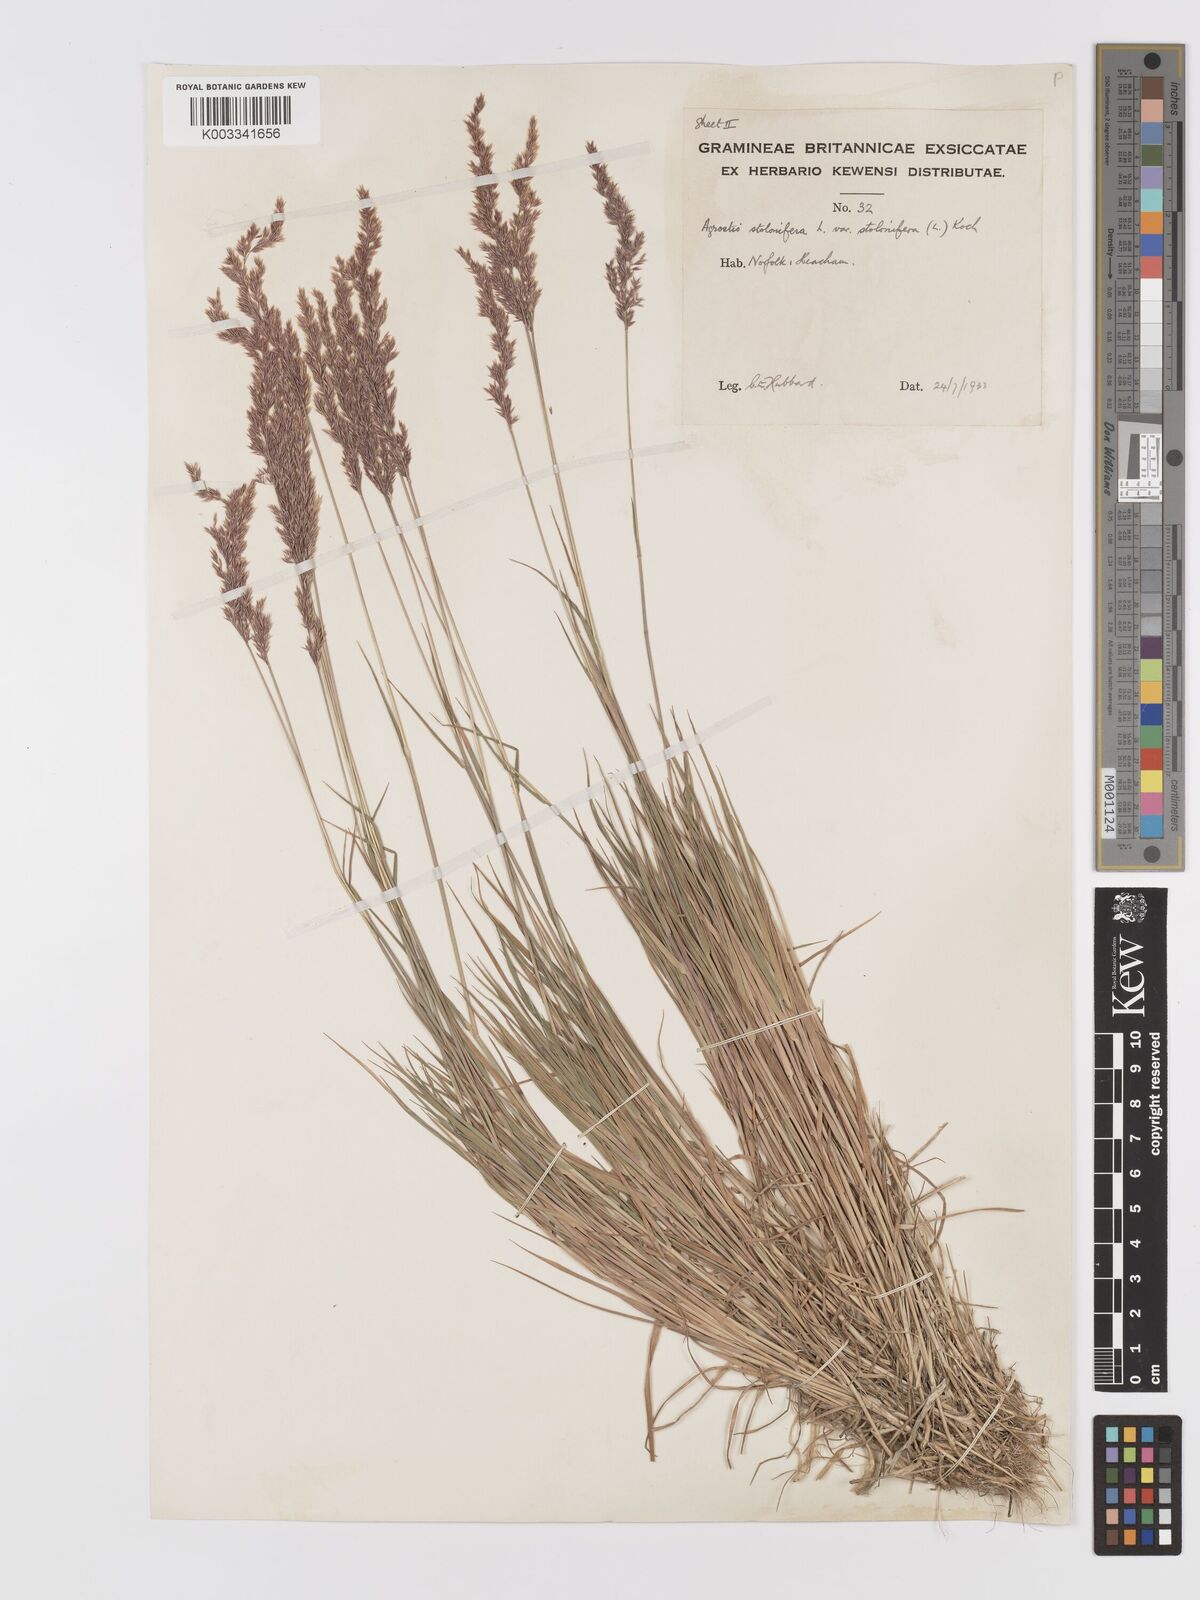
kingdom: Plantae
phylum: Tracheophyta
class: Liliopsida
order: Poales
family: Poaceae
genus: Agrostis
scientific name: Agrostis stolonifera
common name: Creeping bentgrass
